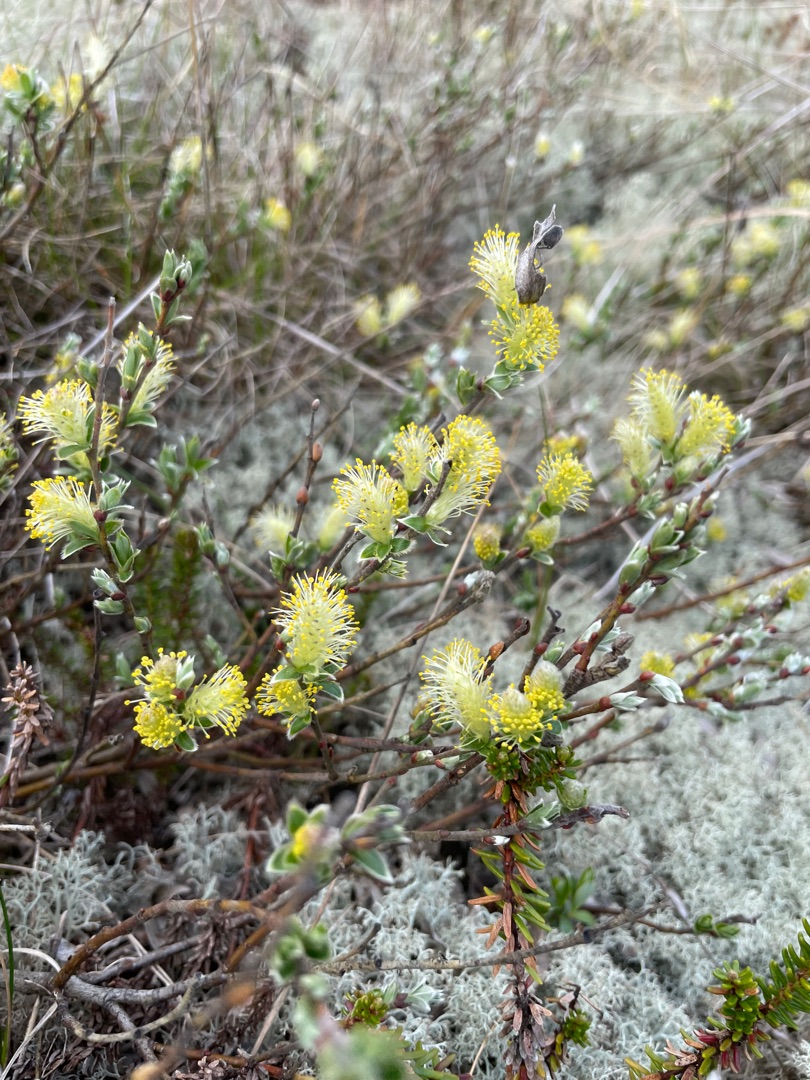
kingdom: Plantae
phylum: Tracheophyta
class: Magnoliopsida
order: Malpighiales
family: Salicaceae
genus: Salix
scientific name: Salix repens
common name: Krybende pil
